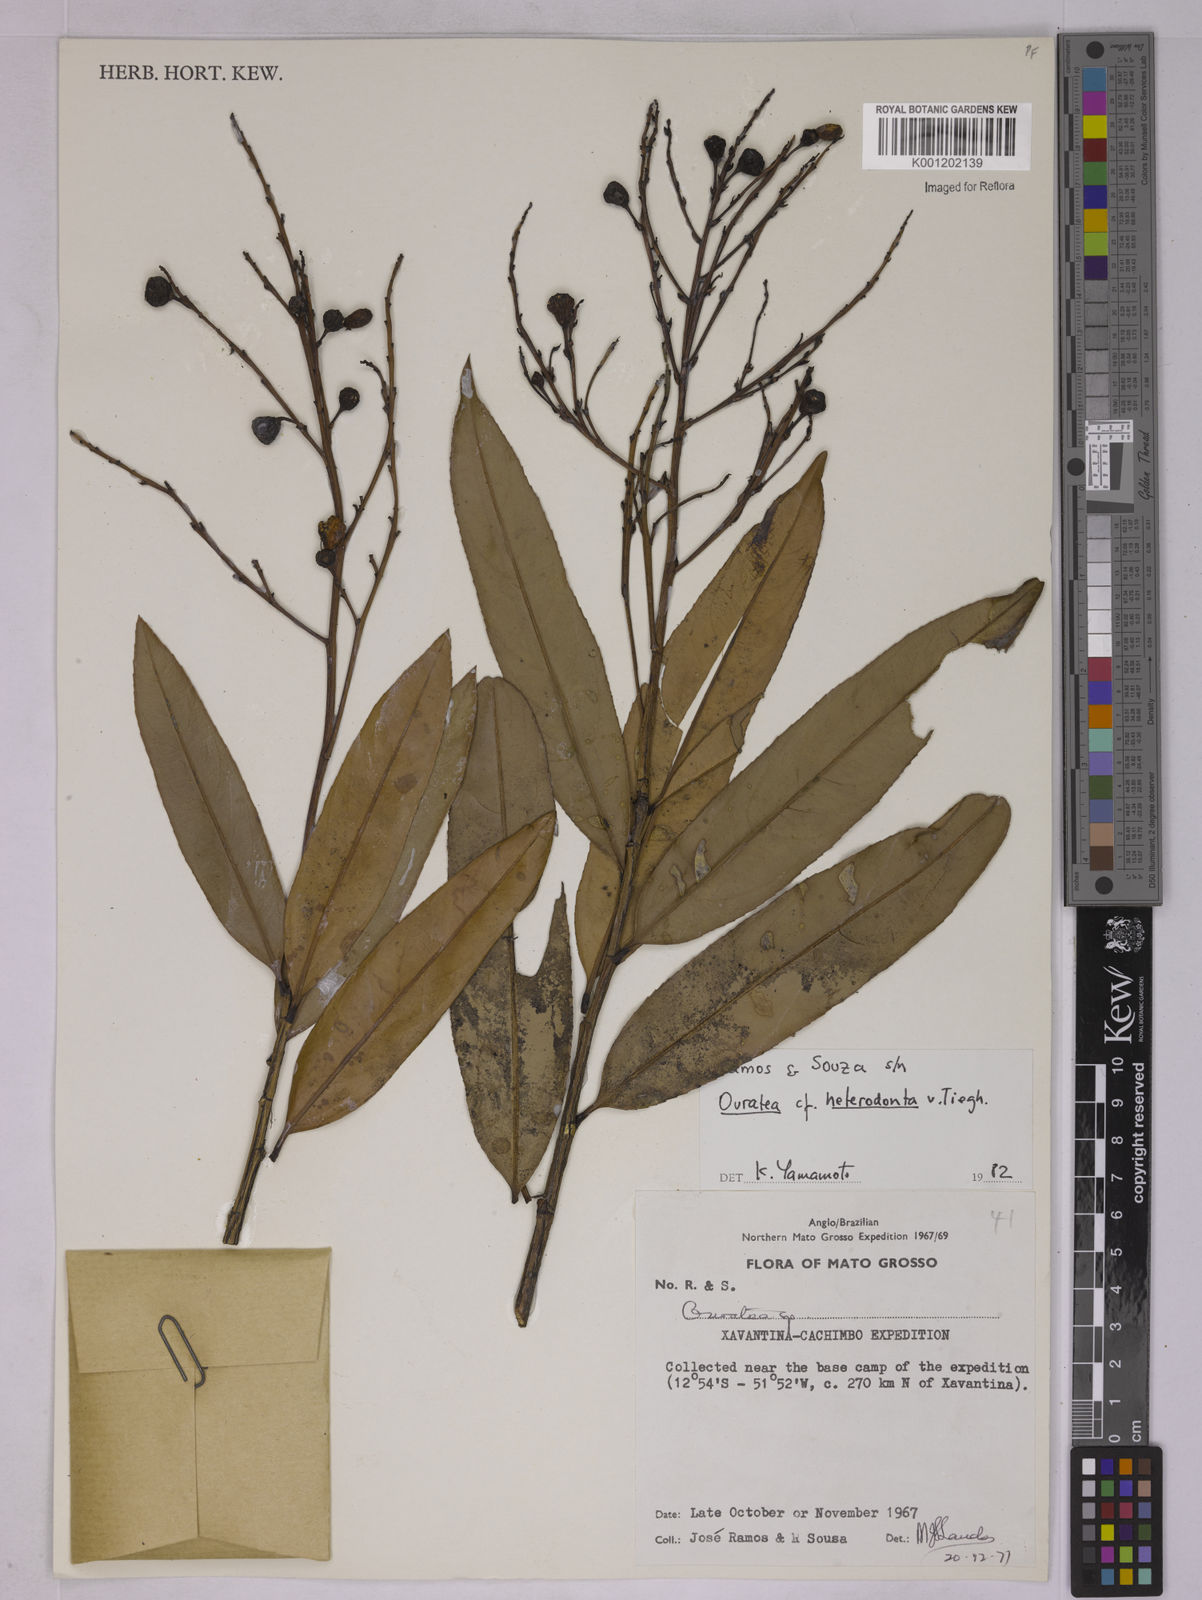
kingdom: Plantae
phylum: Tracheophyta
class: Magnoliopsida
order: Malpighiales
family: Ochnaceae
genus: Ouratea
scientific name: Ouratea crassifolia
